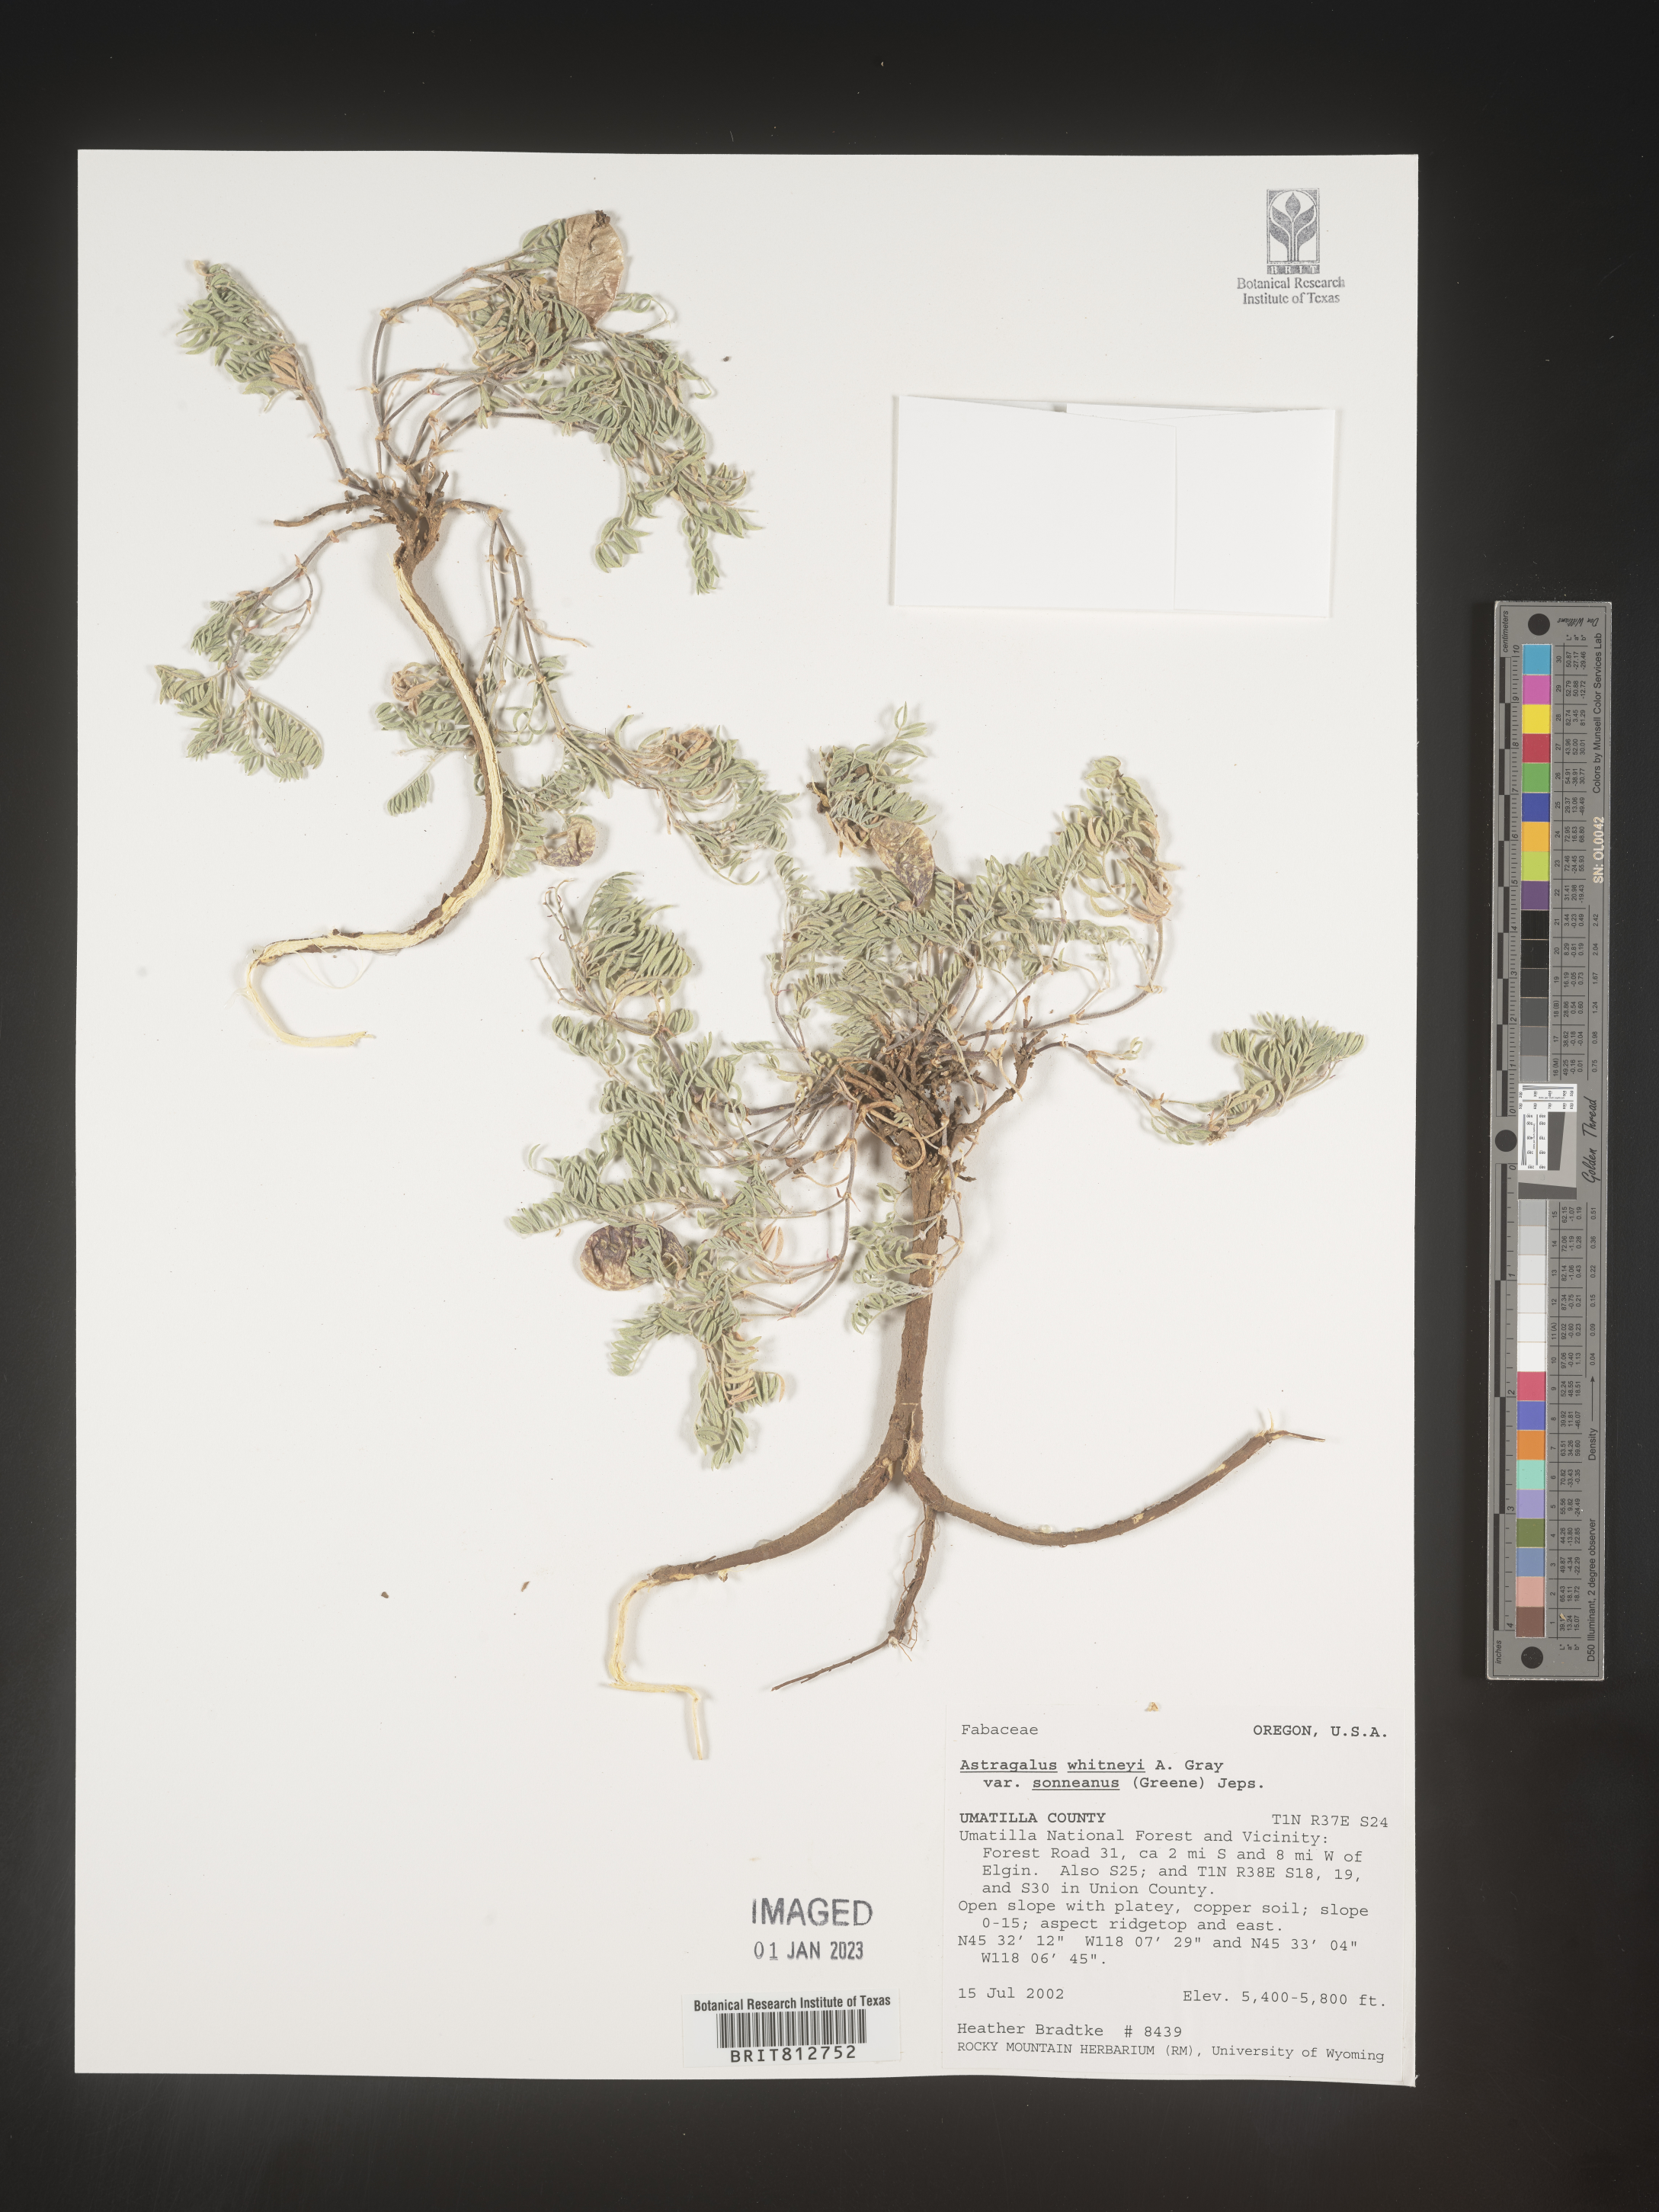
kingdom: Plantae
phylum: Tracheophyta
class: Magnoliopsida
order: Fabales
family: Fabaceae
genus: Astragalus
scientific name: Astragalus
